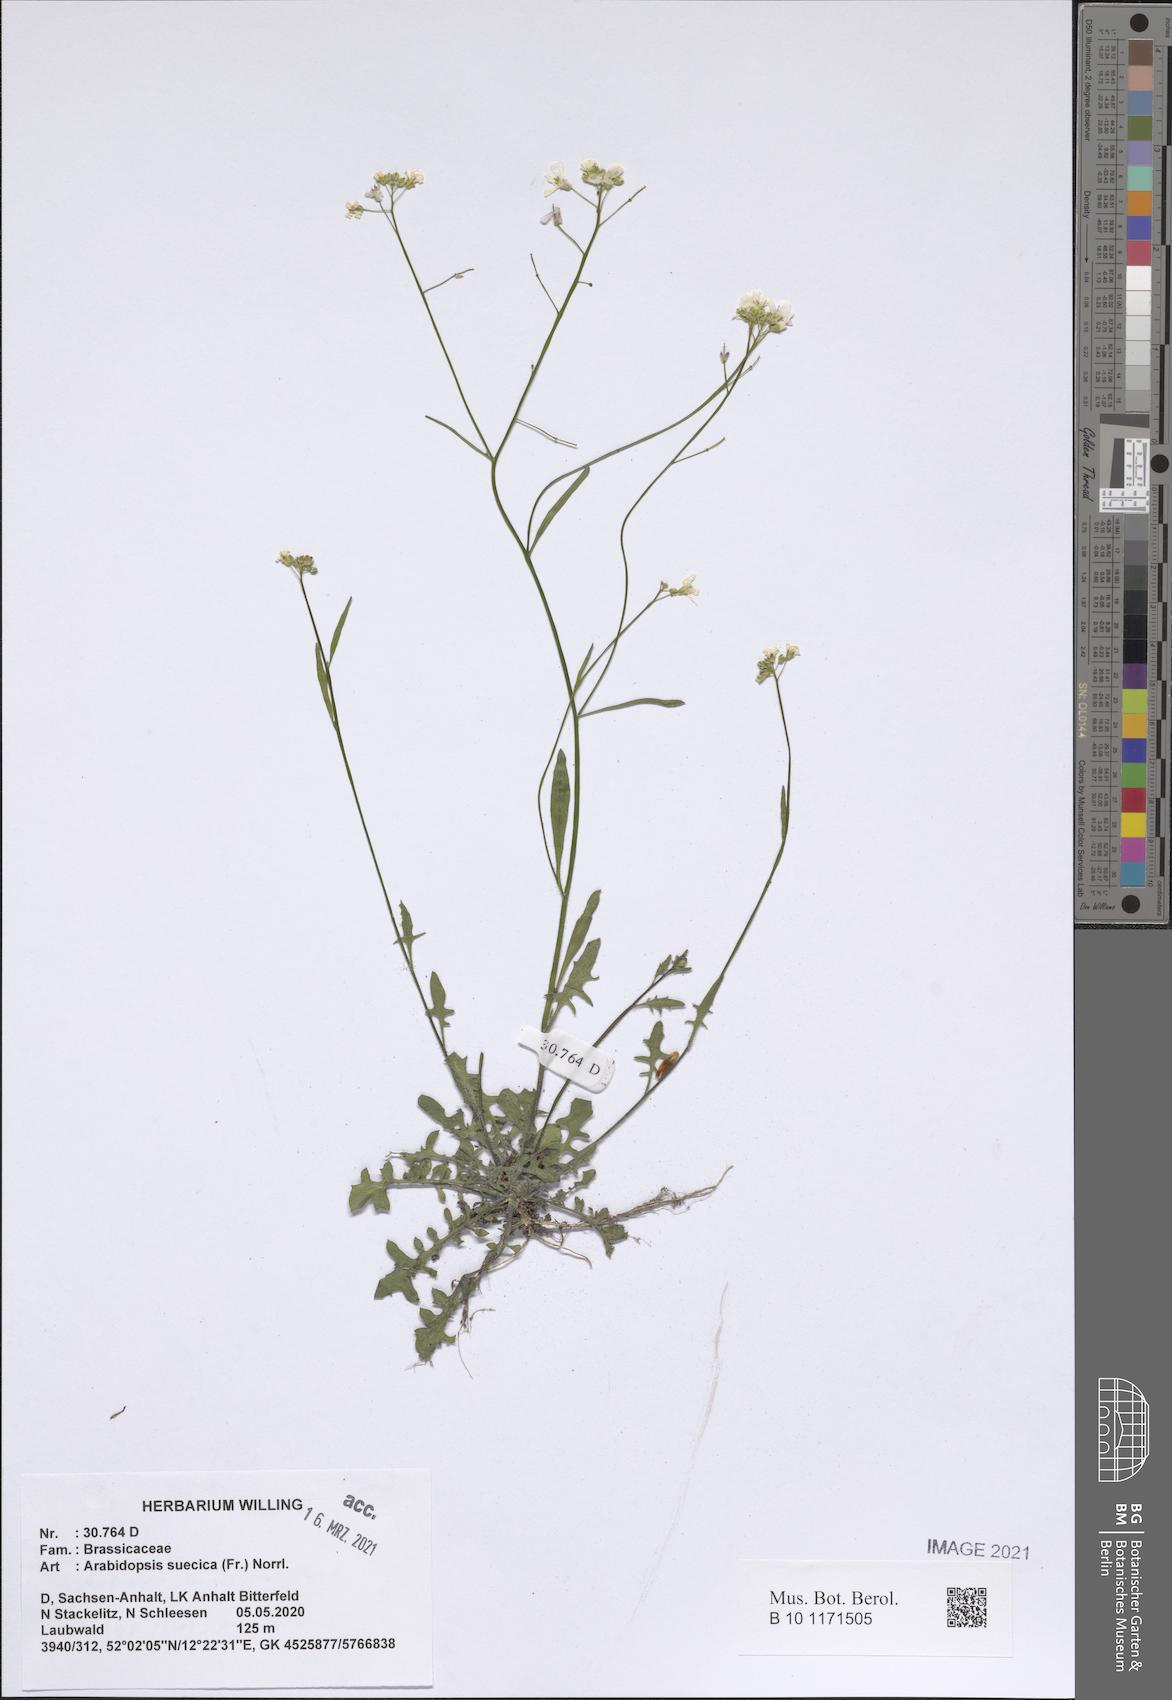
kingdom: Plantae
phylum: Tracheophyta
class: Magnoliopsida
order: Brassicales
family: Brassicaceae
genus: Arabidopsis
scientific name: Arabidopsis suecica
